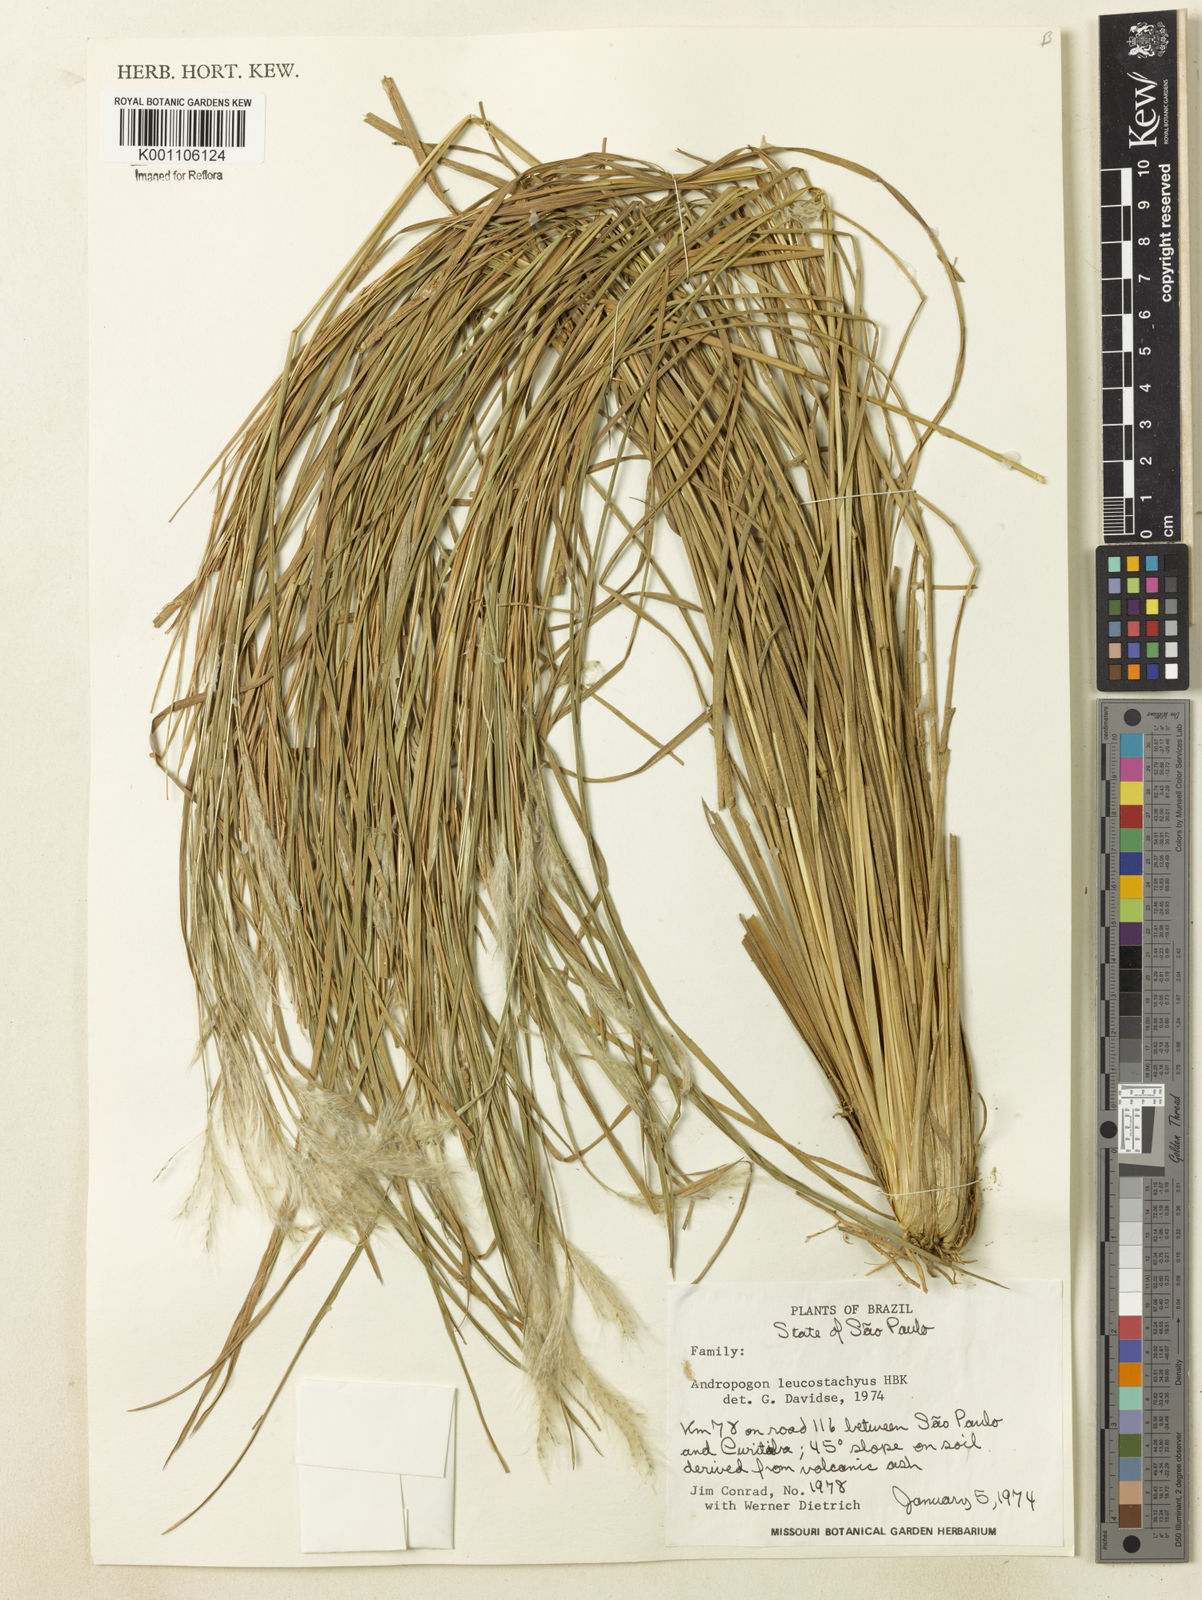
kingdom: Plantae
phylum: Tracheophyta
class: Liliopsida
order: Poales
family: Poaceae
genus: Andropogon
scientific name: Andropogon leucostachyus
